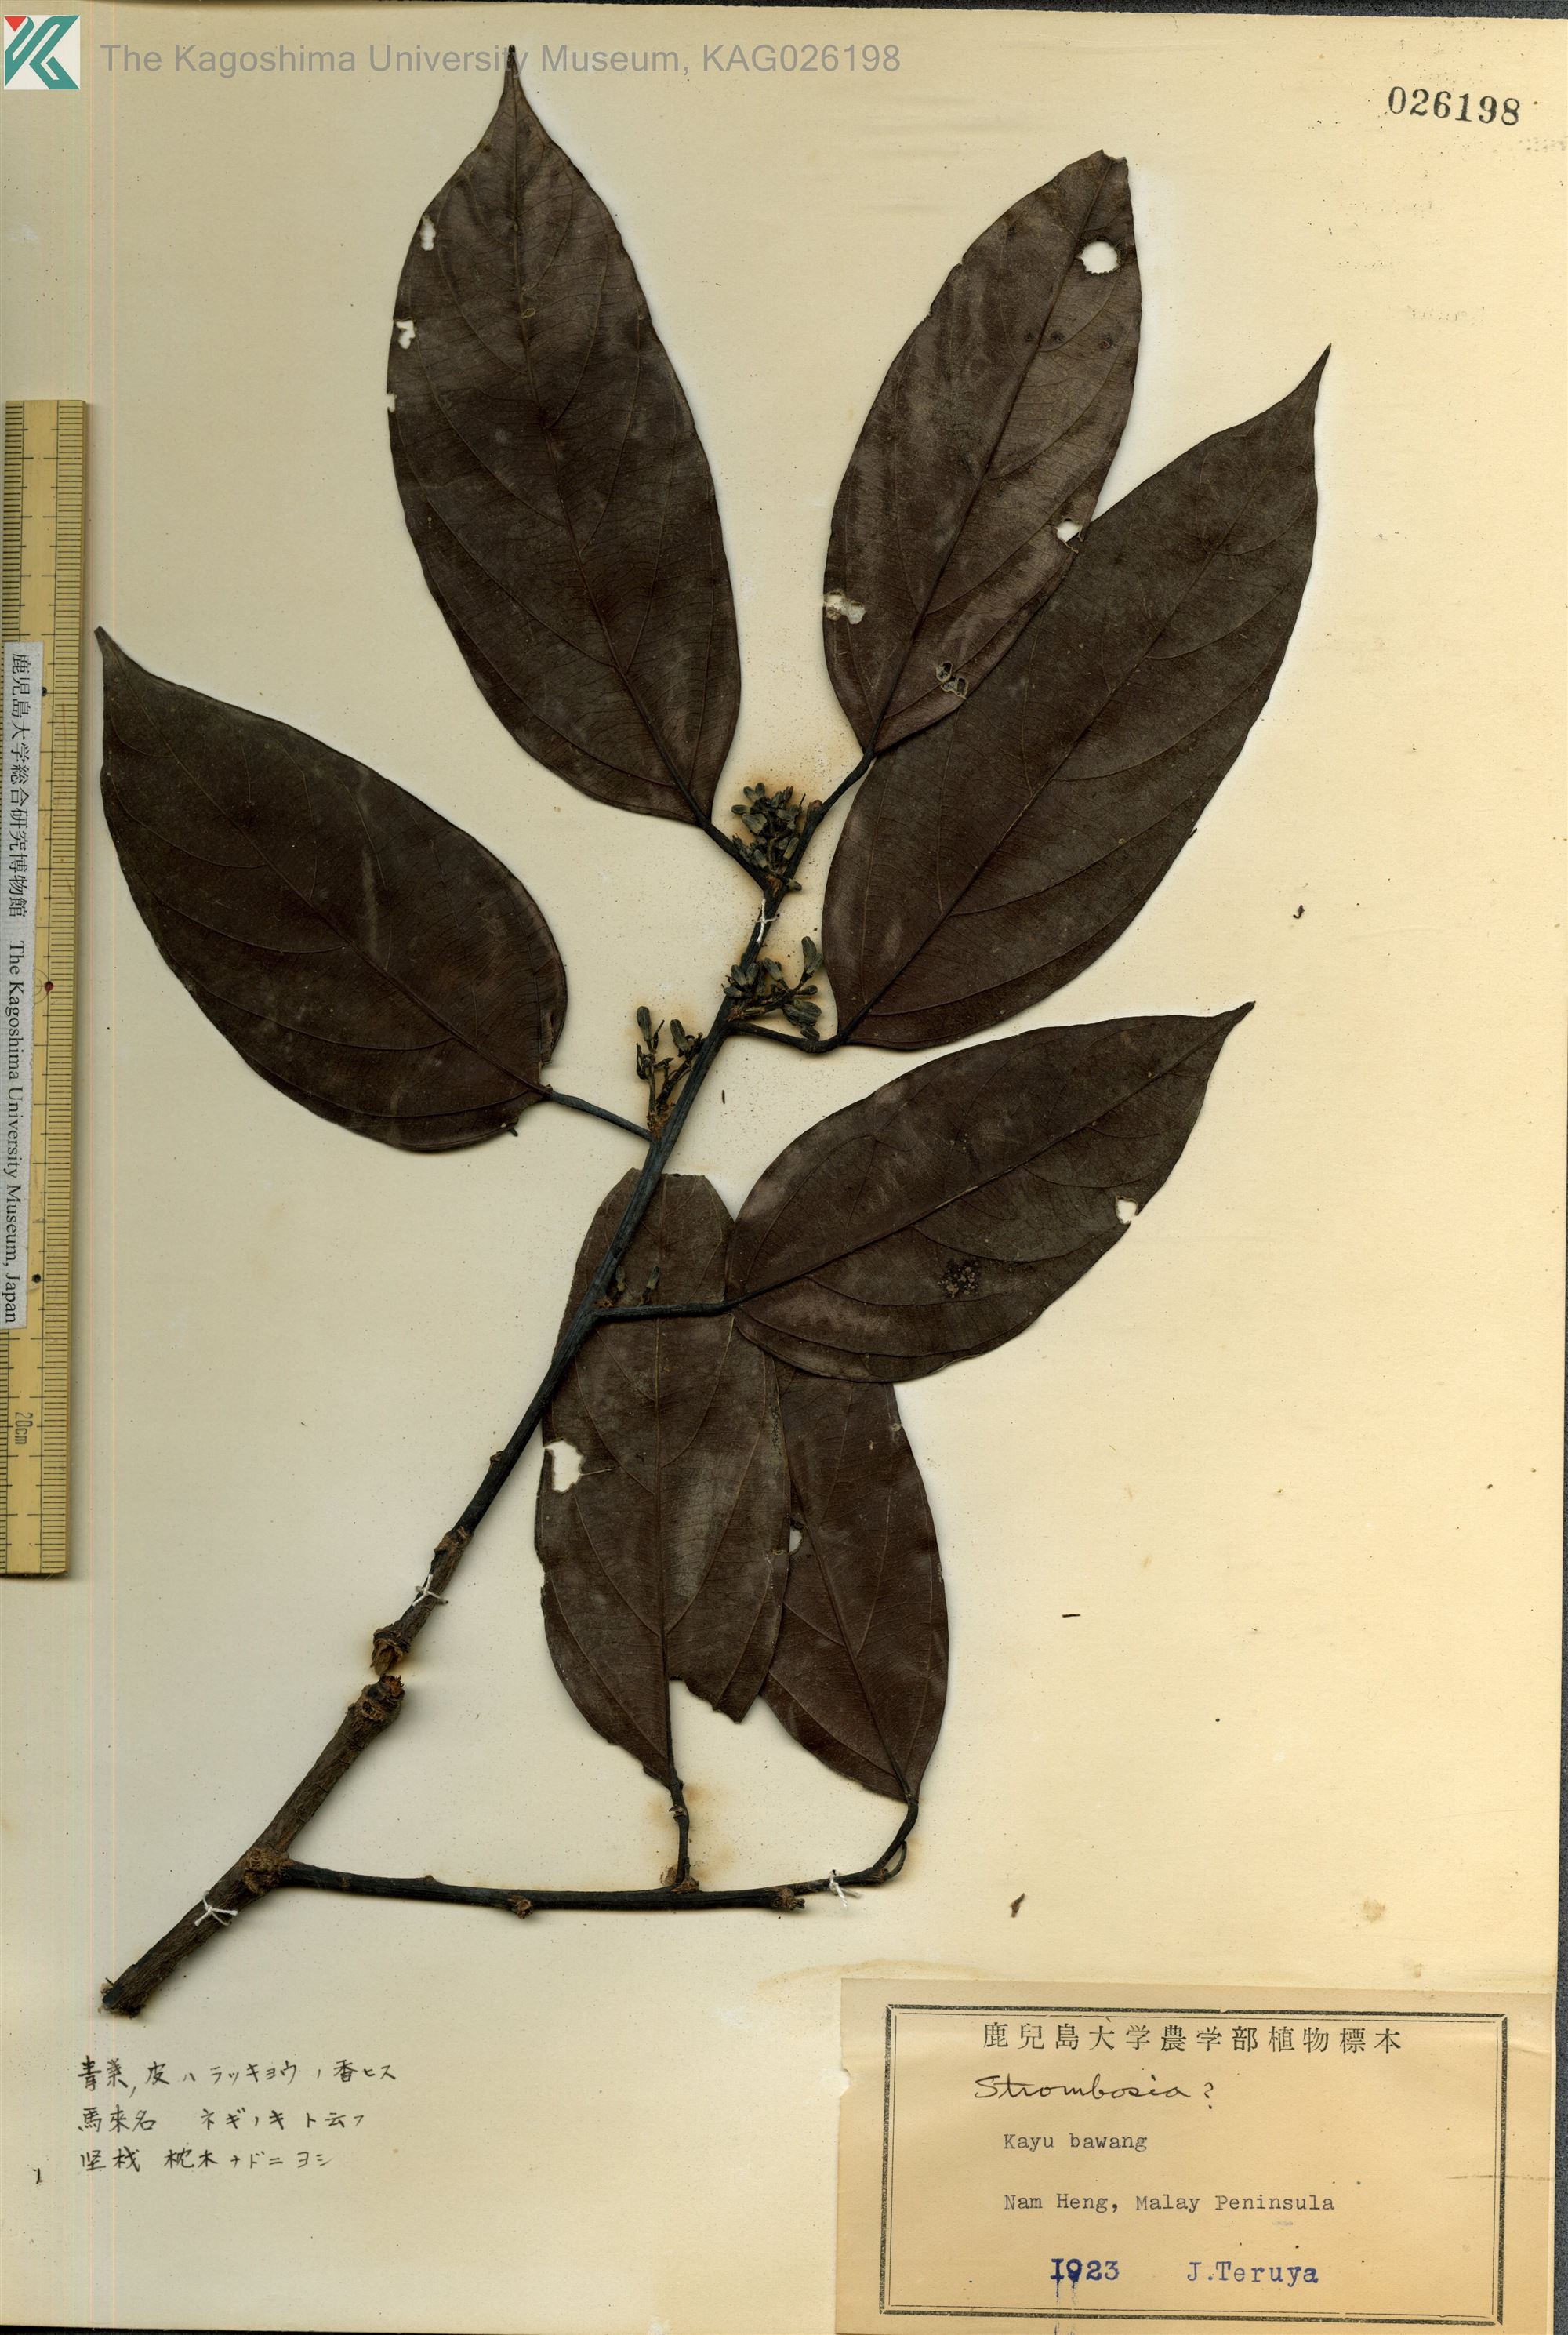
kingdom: Plantae
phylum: Tracheophyta
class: Magnoliopsida
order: Santalales
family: Strombosiaceae
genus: Scorodocarpus
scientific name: Scorodocarpus borneensis
